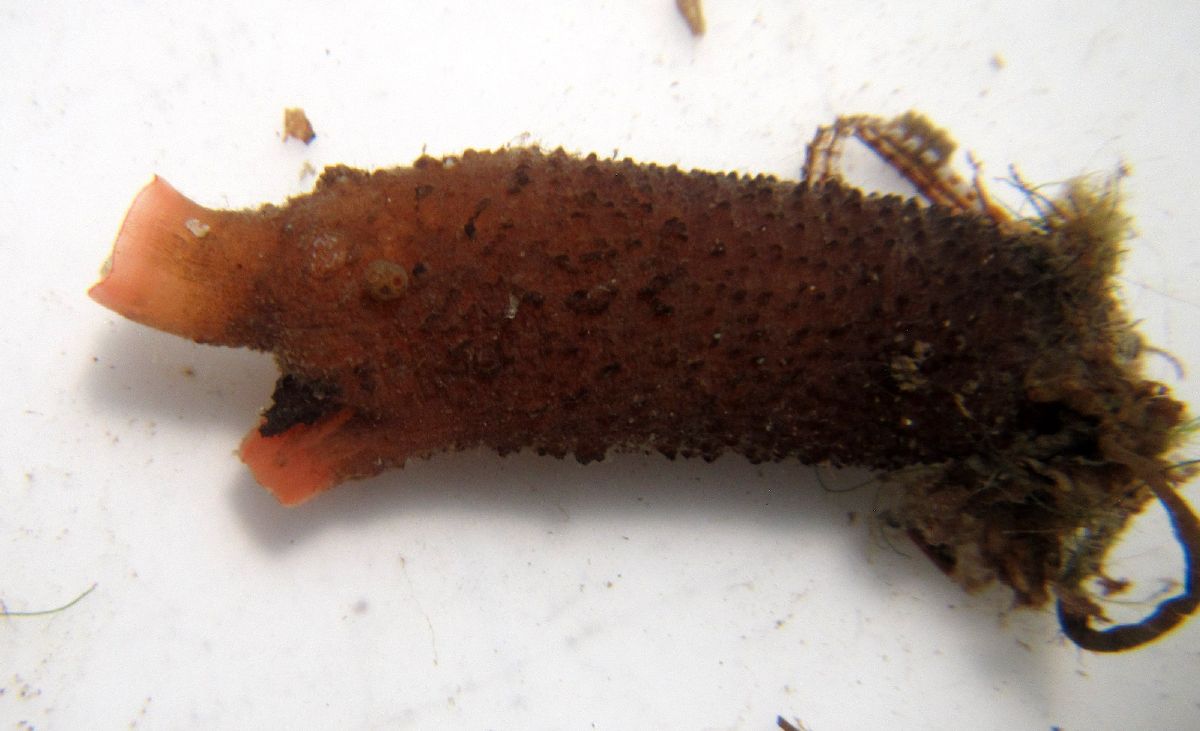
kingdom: Animalia
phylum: Chordata
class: Ascidiacea
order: Stolidobranchia
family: Styelidae
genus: Styela
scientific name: Styela rustica
